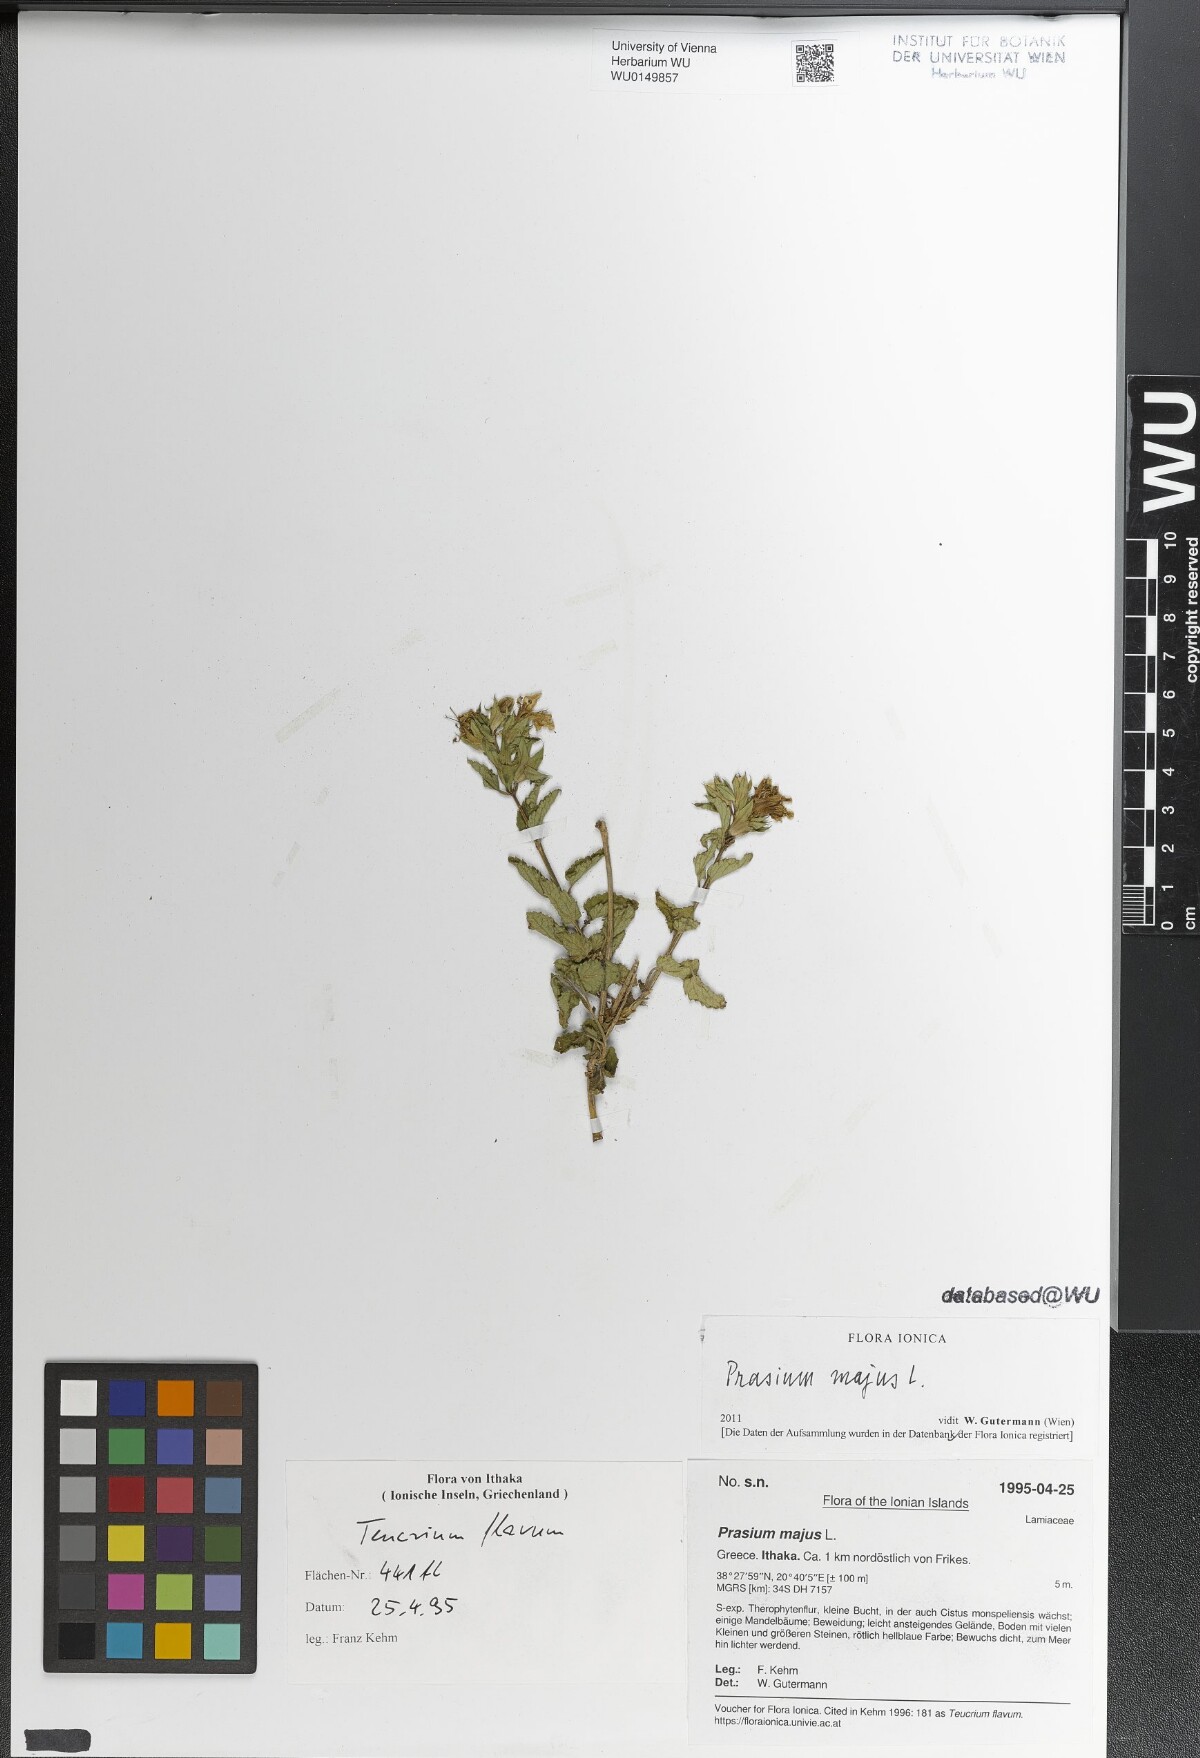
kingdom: Plantae
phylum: Tracheophyta
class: Magnoliopsida
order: Lamiales
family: Lamiaceae
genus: Prasium
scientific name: Prasium majus
